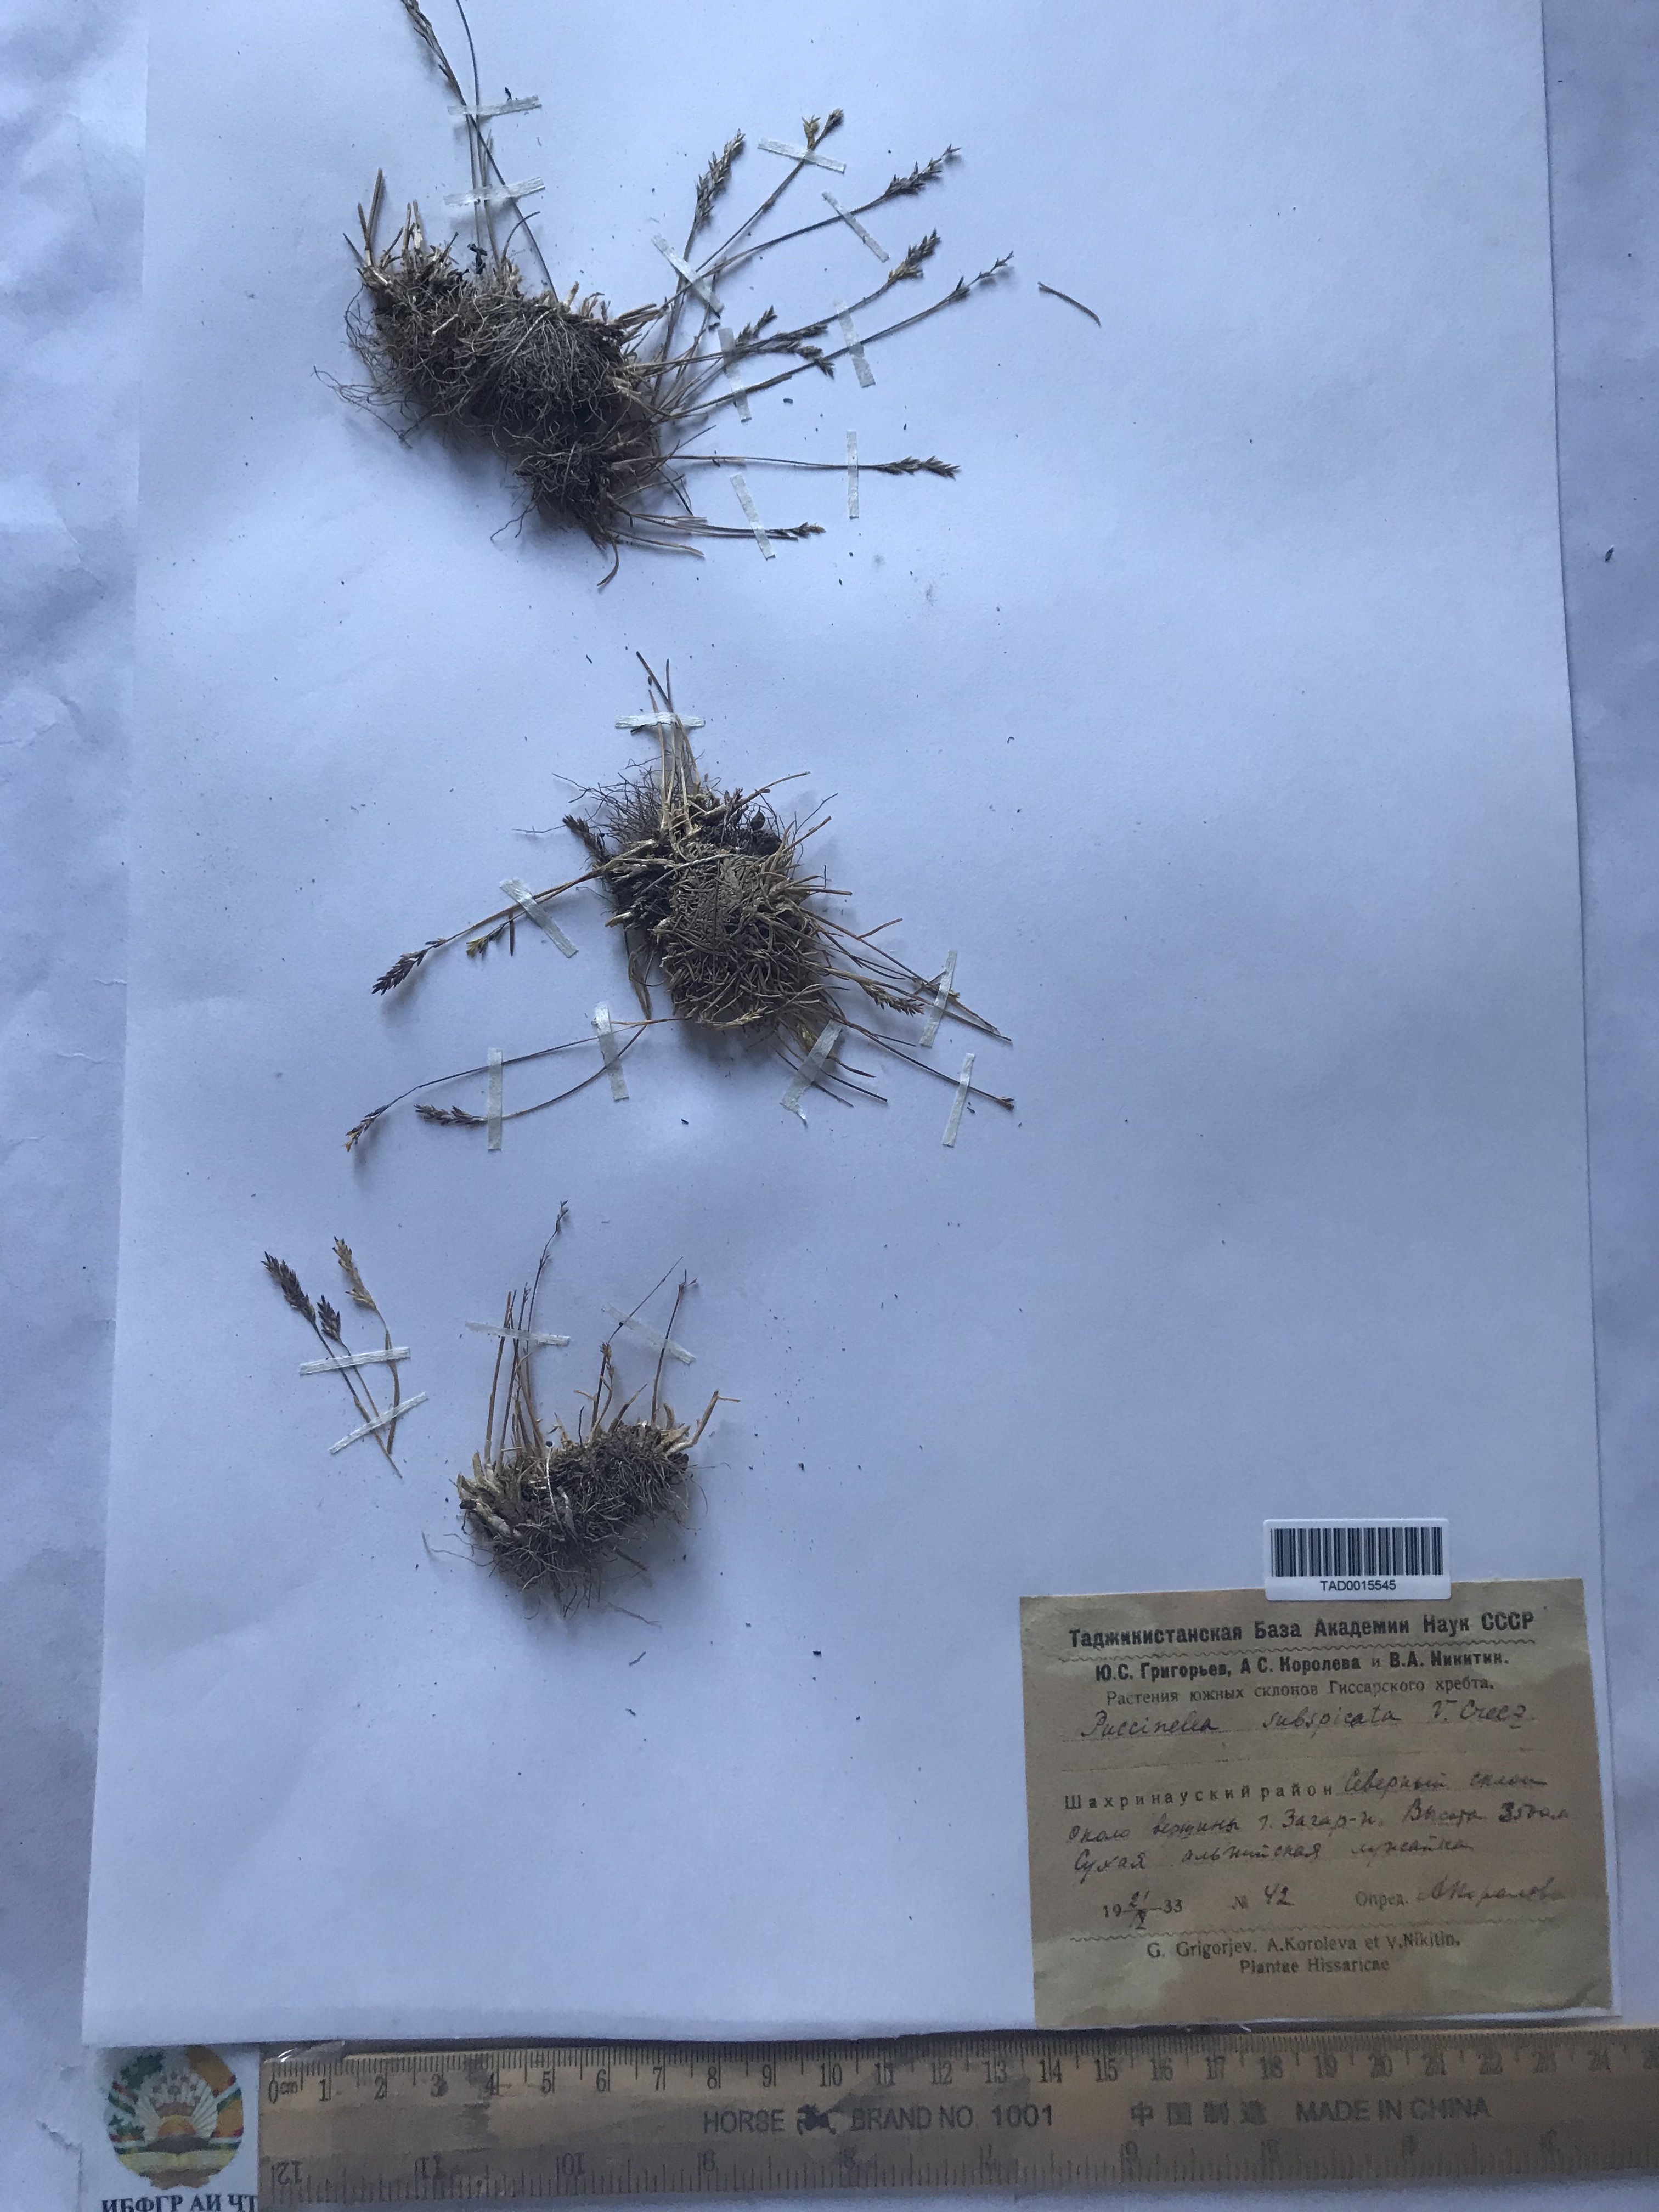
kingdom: Plantae
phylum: Tracheophyta
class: Liliopsida
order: Poales
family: Poaceae
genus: Puccinellia
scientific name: Puccinellia subspicata
